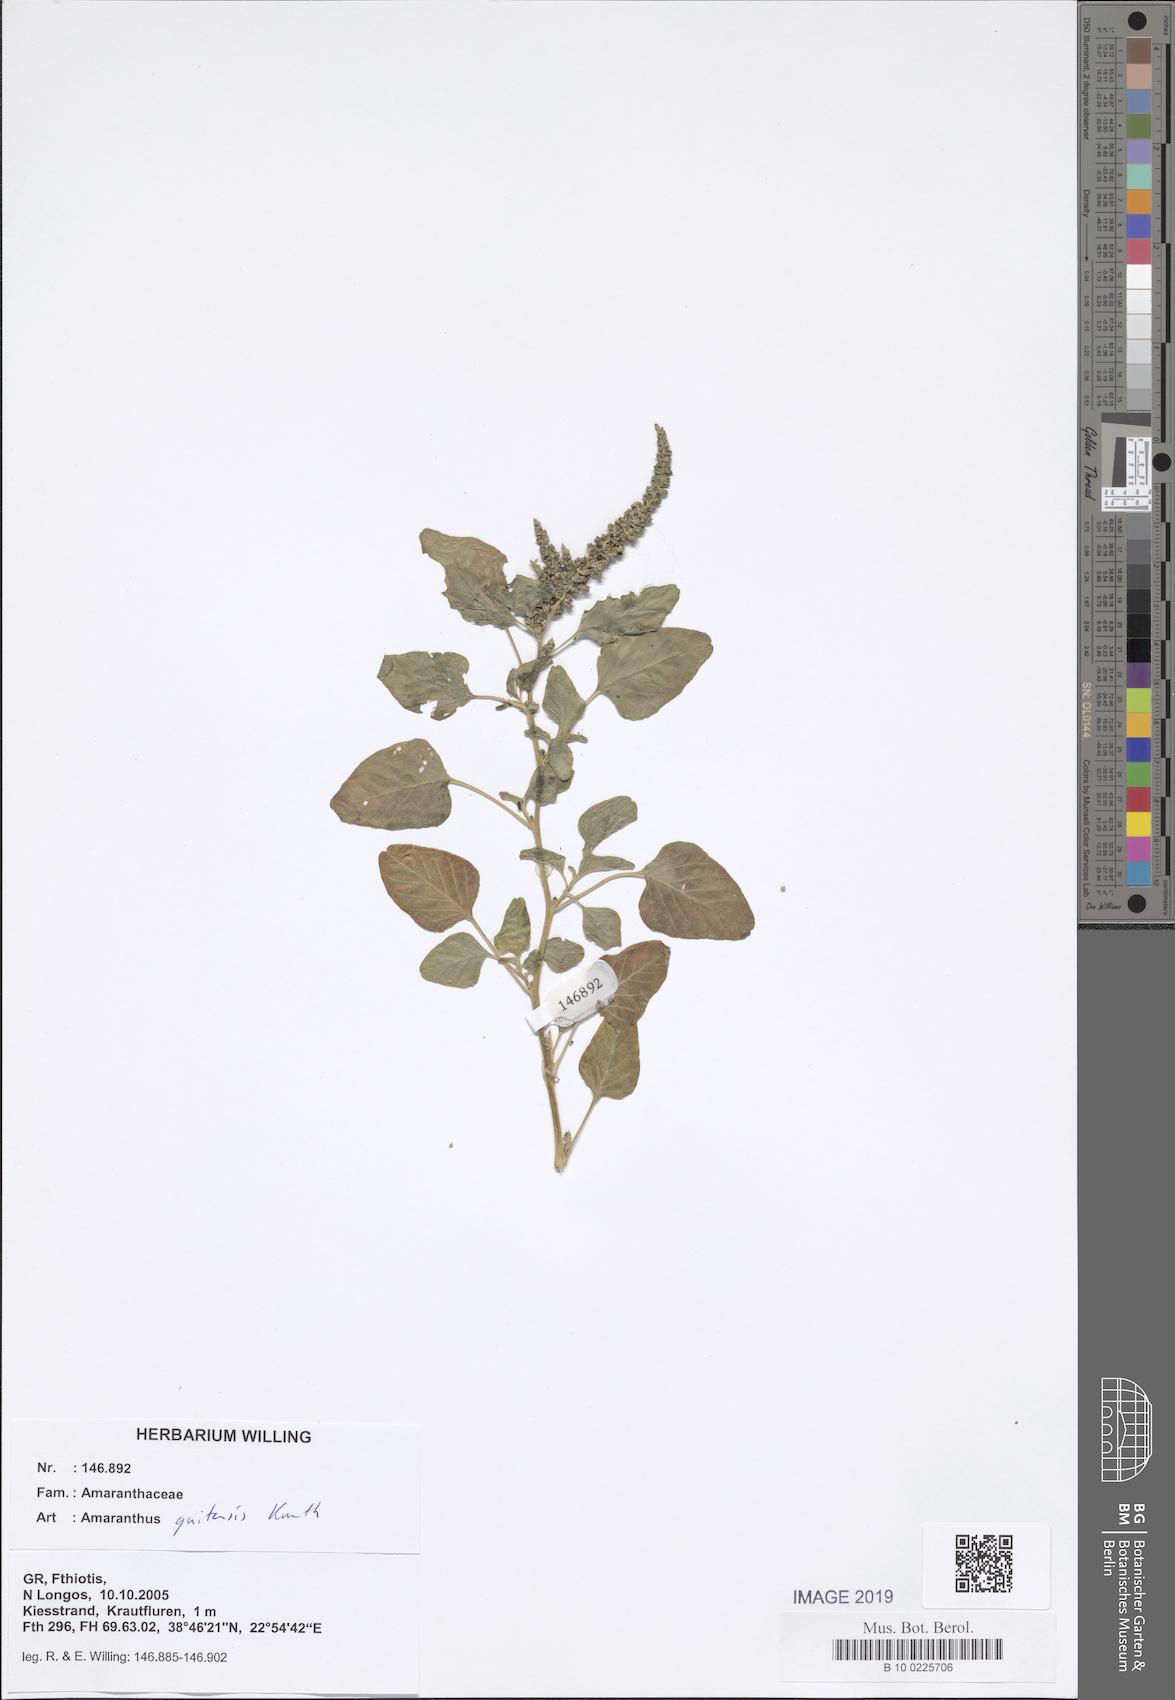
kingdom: Plantae
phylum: Tracheophyta
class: Magnoliopsida
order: Caryophyllales
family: Amaranthaceae
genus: Amaranthus
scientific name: Amaranthus quitensis
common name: Mucronate amaranth
